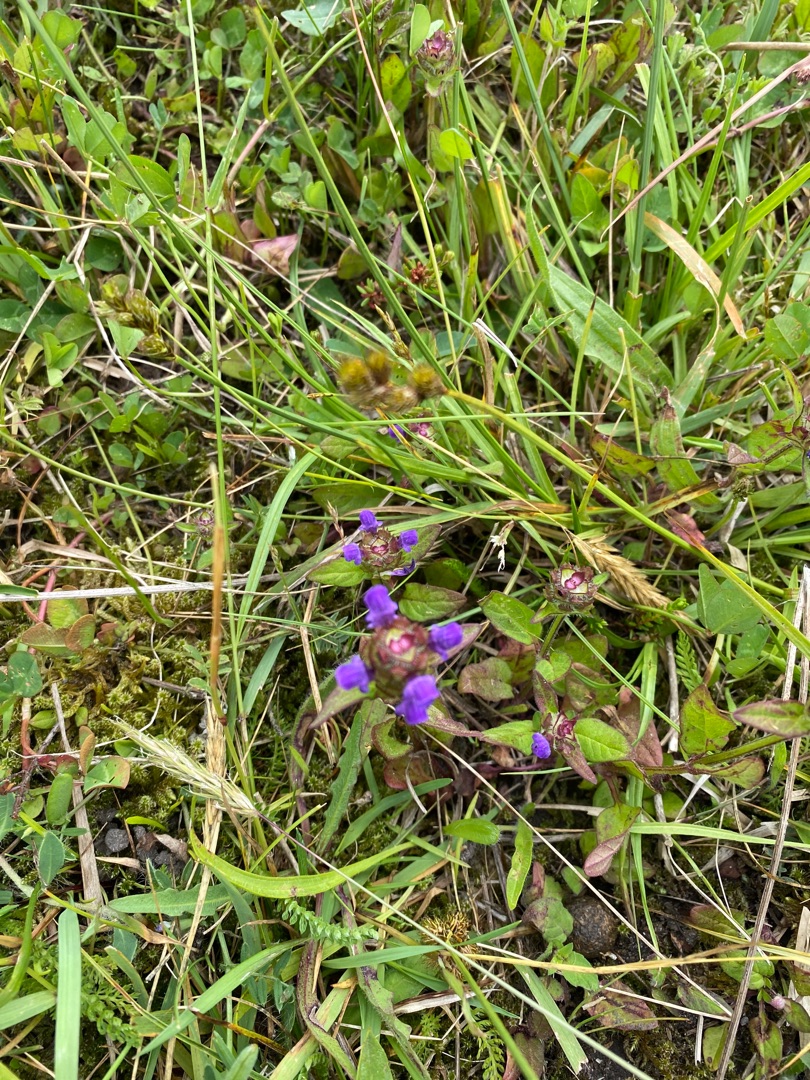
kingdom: Plantae
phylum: Tracheophyta
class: Magnoliopsida
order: Lamiales
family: Lamiaceae
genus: Prunella
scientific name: Prunella vulgaris
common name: Almindelig brunelle
